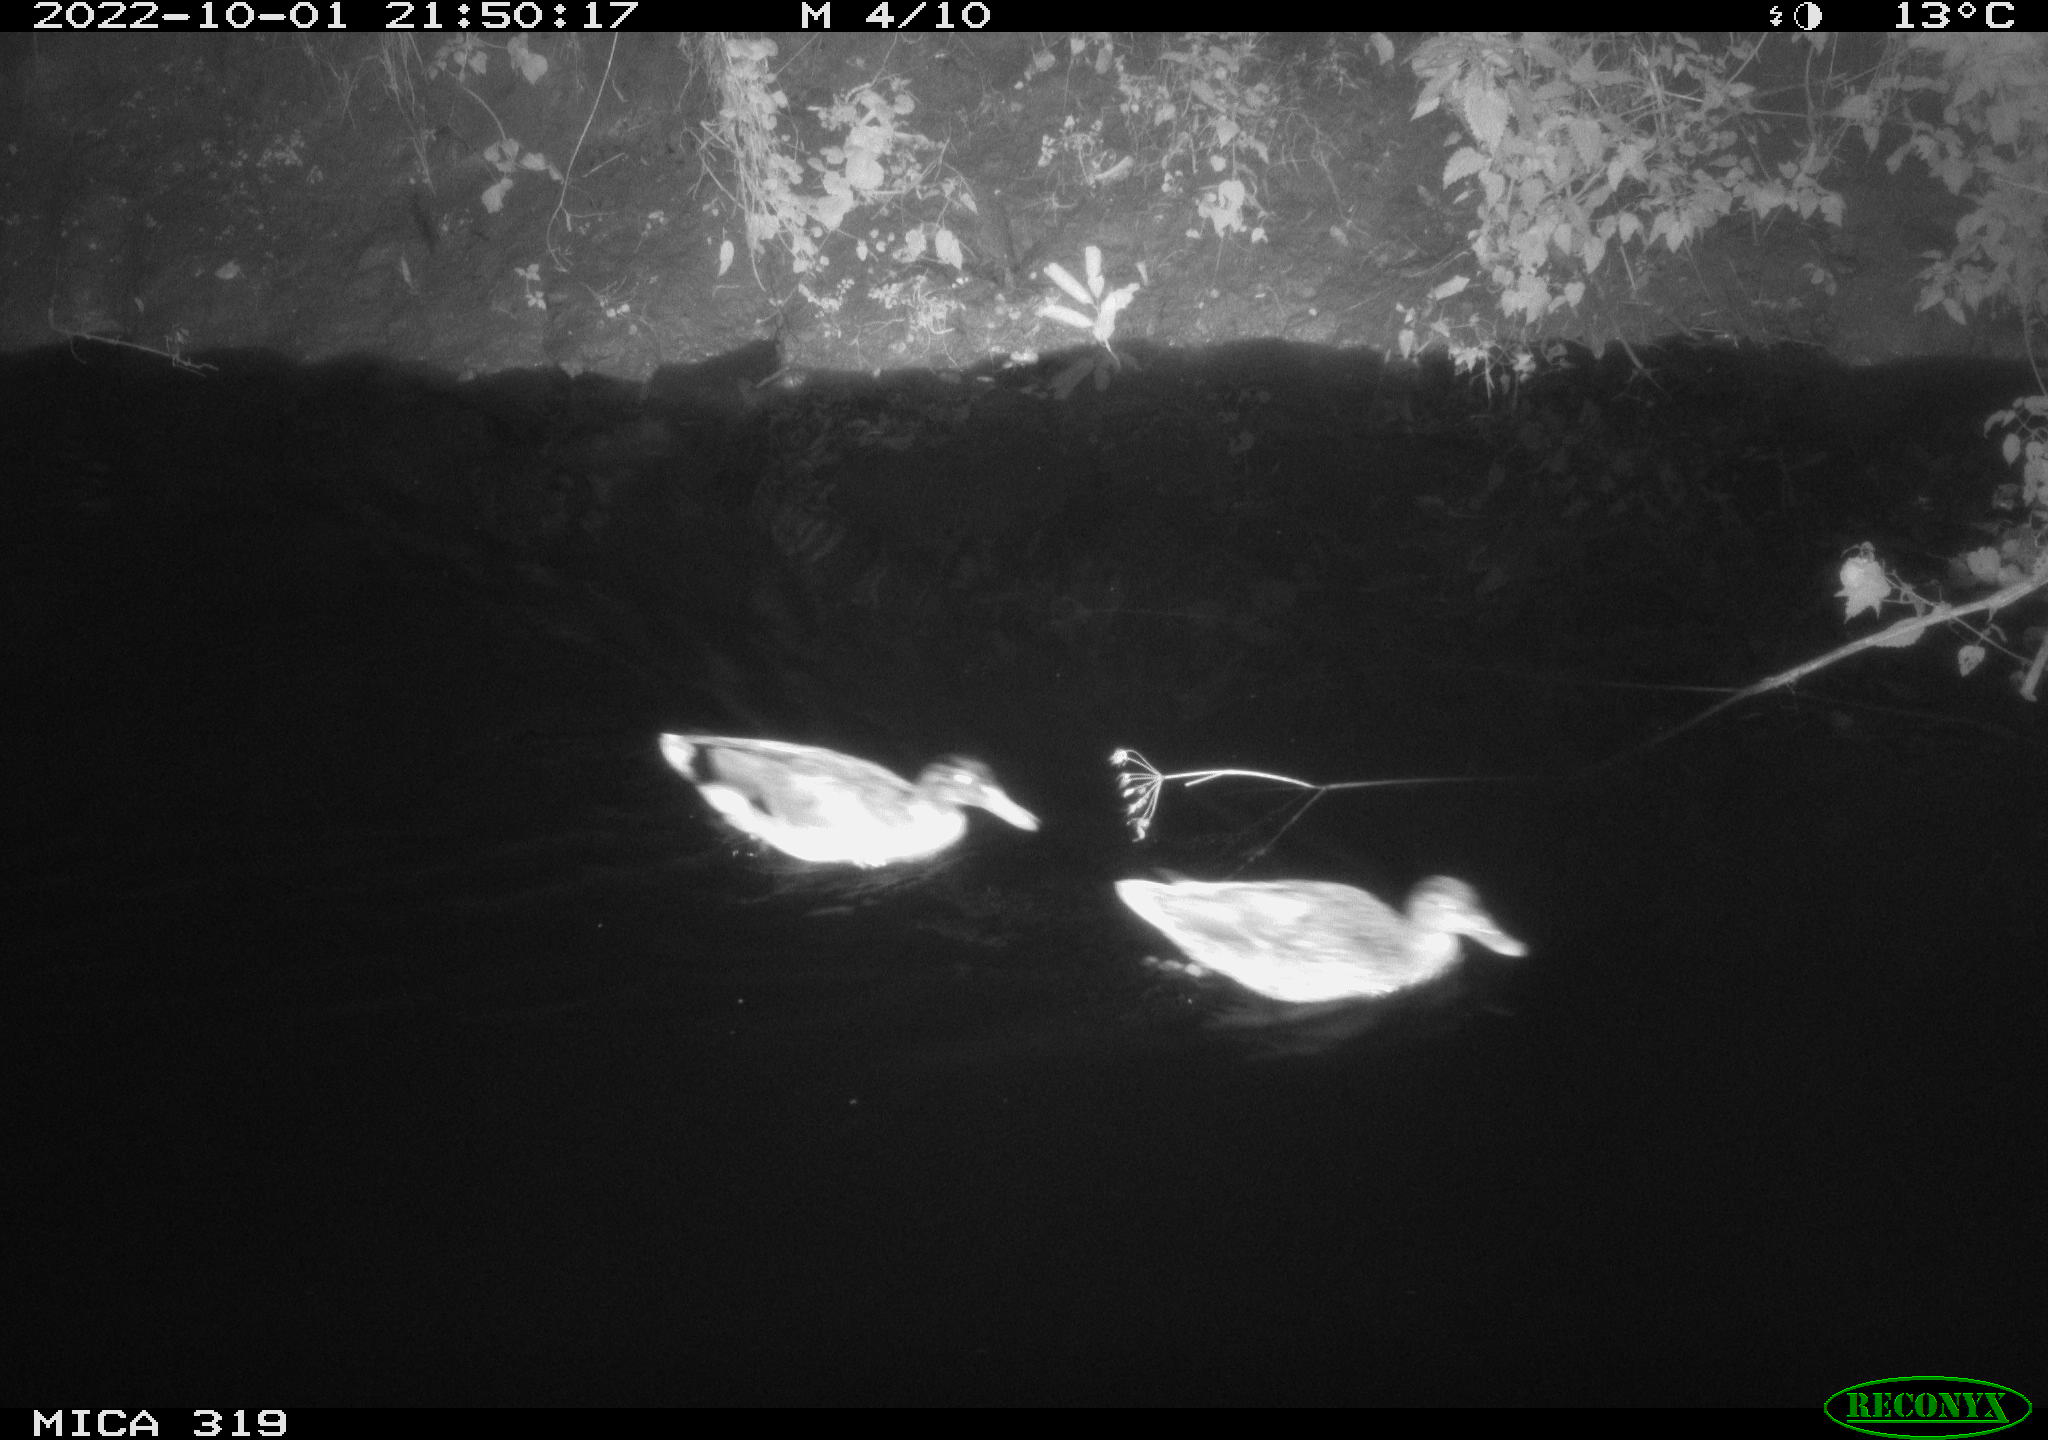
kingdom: Animalia
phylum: Chordata
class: Aves
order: Anseriformes
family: Anatidae
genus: Anas
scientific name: Anas
